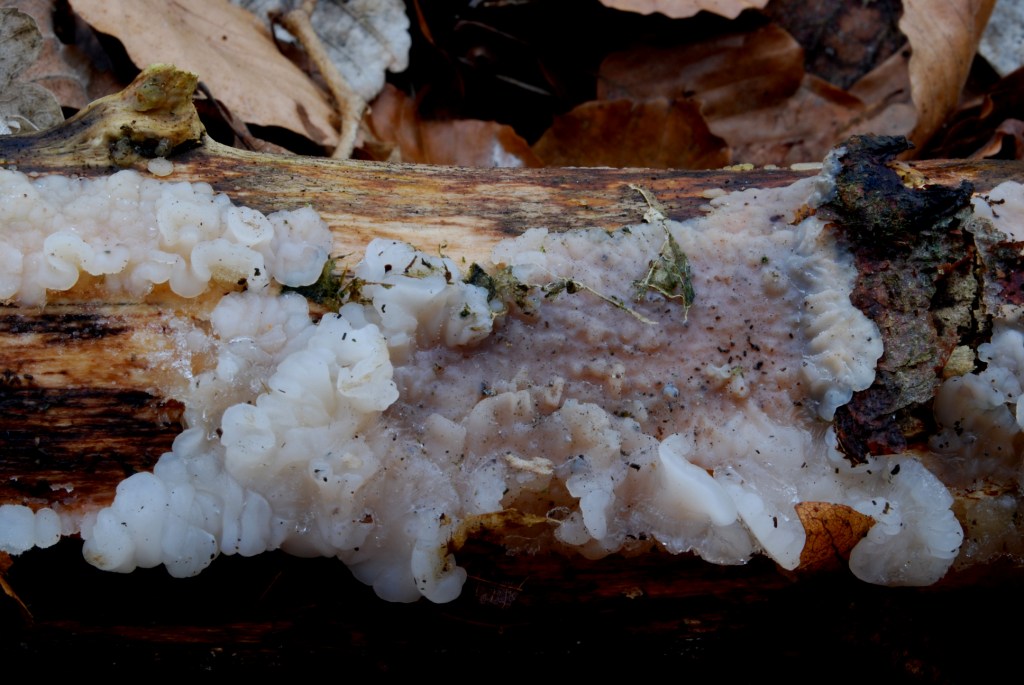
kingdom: Fungi
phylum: Basidiomycota
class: Agaricomycetes
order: Auriculariales
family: Auriculariaceae
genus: Exidia
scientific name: Exidia thuretiana
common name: hvidlig bævretop
